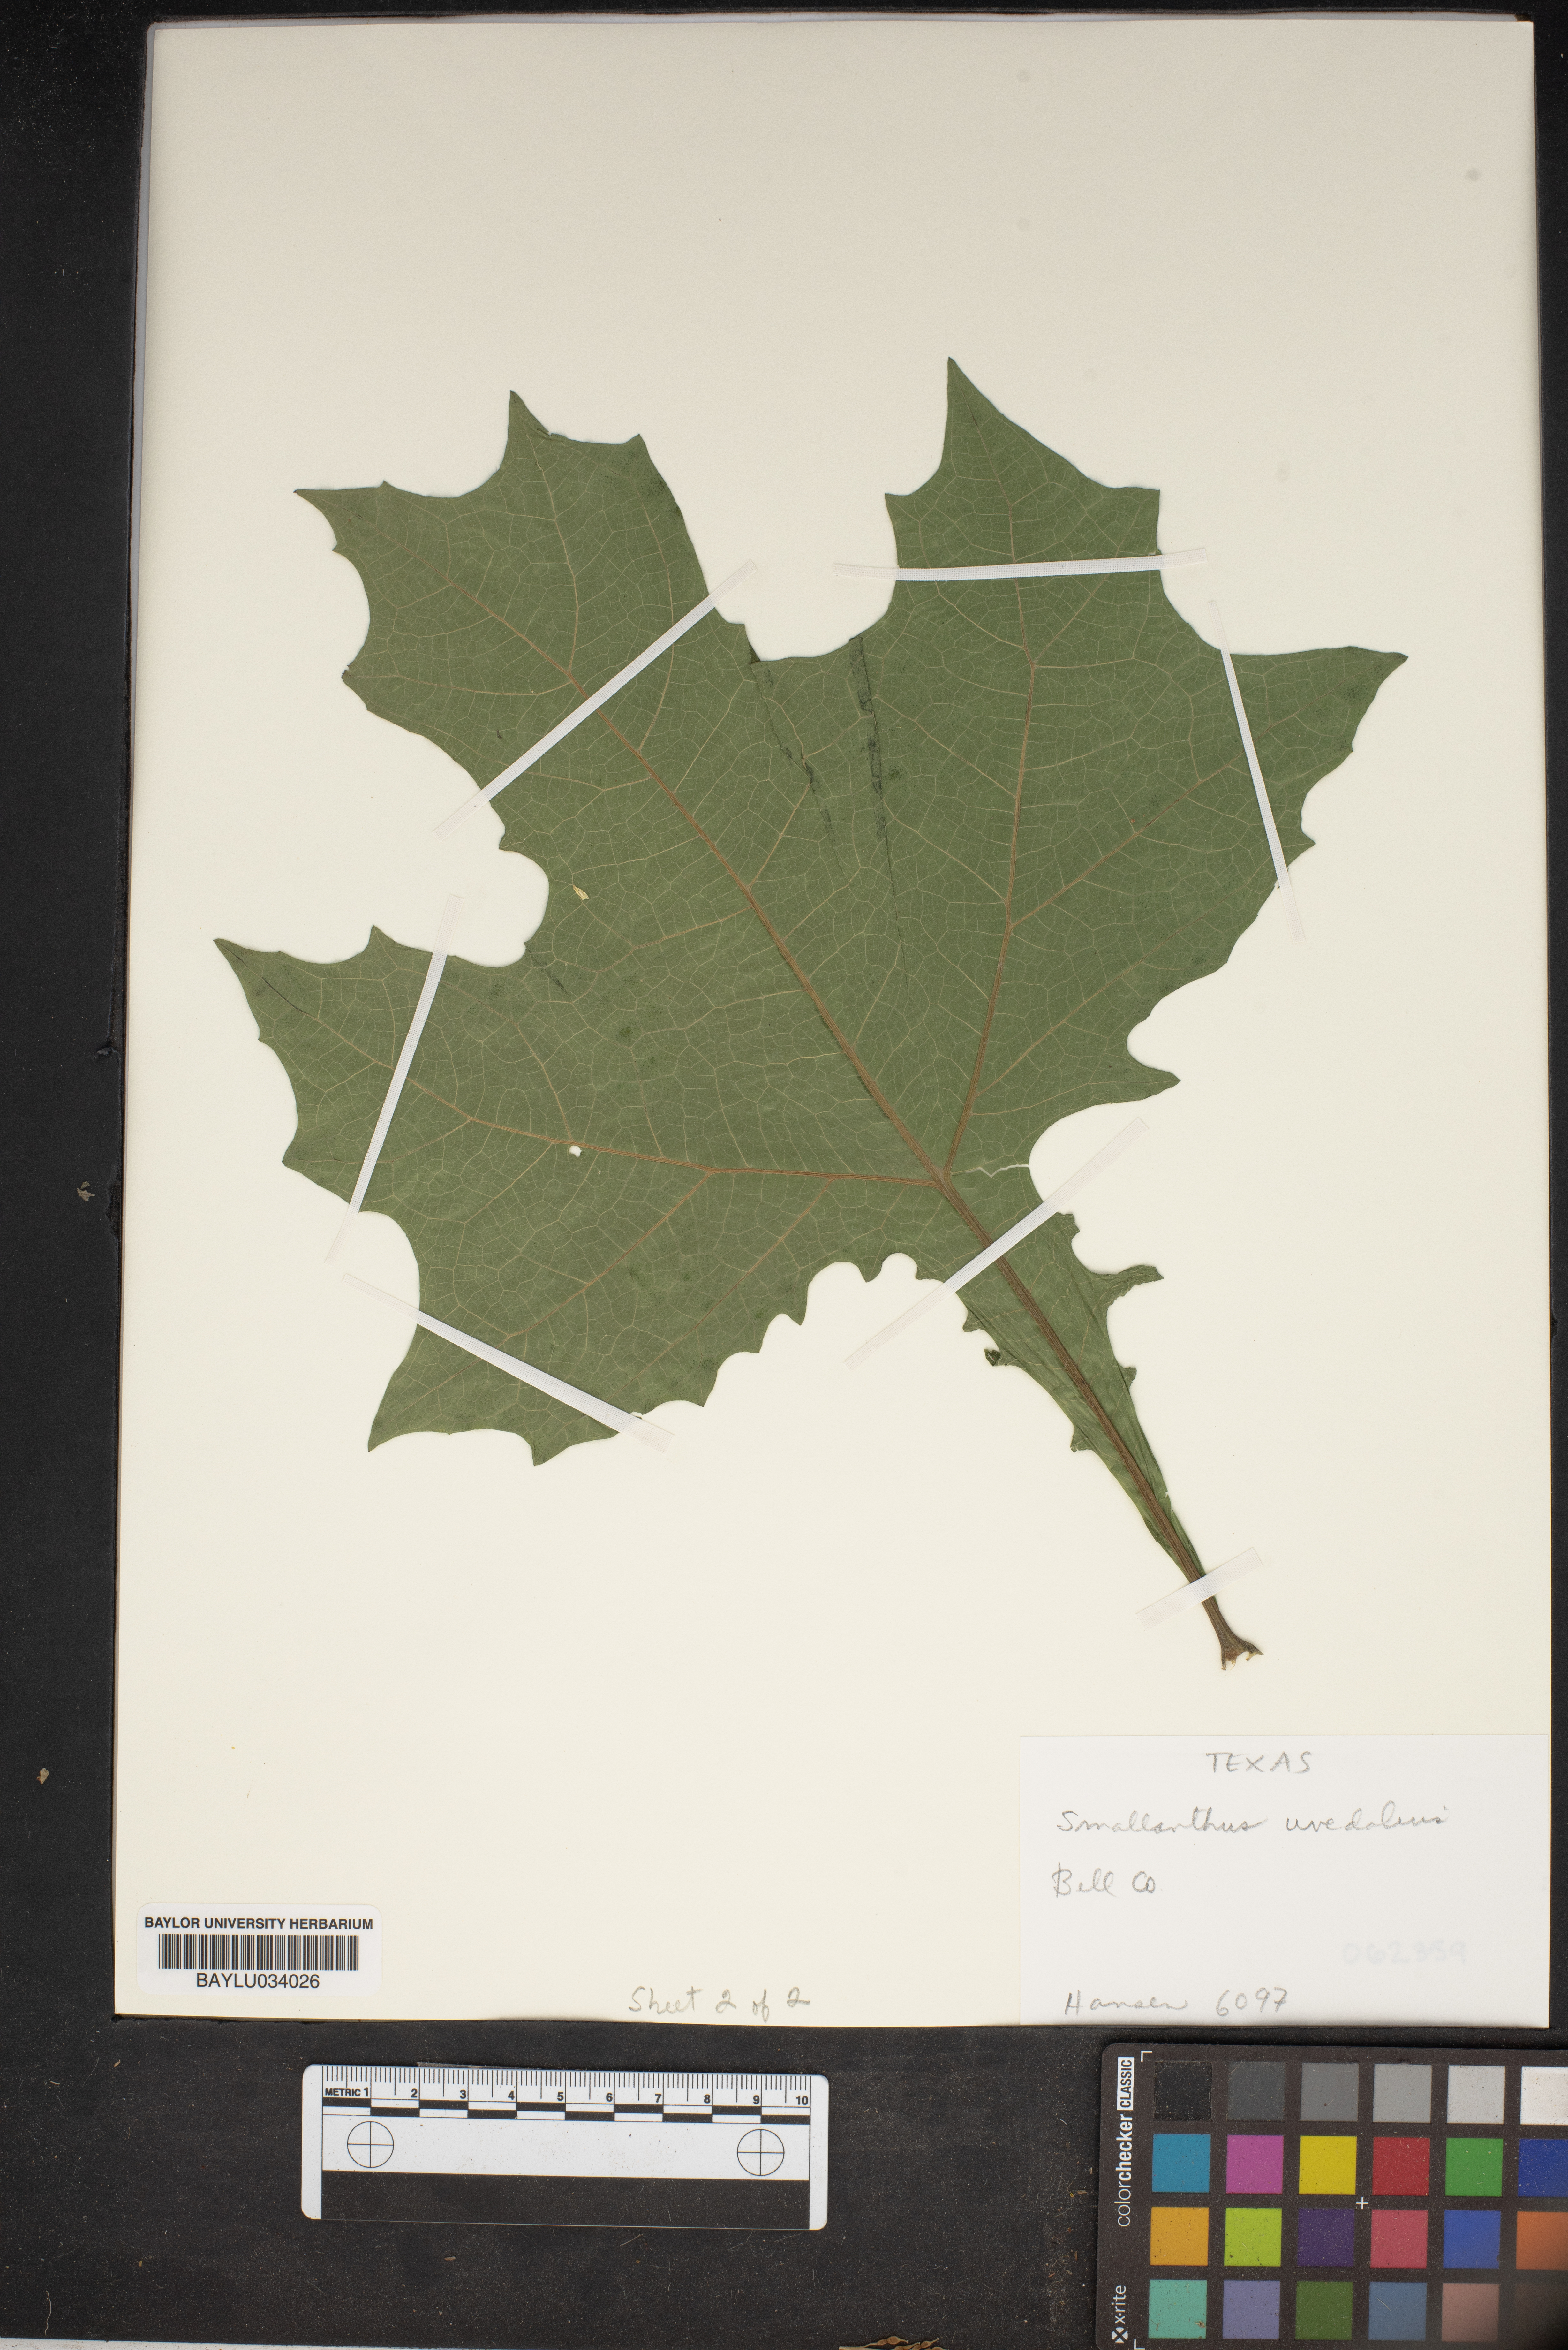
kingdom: Plantae
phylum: Tracheophyta
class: Magnoliopsida
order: Asterales
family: Asteraceae
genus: Smallanthus
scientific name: Smallanthus uvedalia
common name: Bear's-foot
